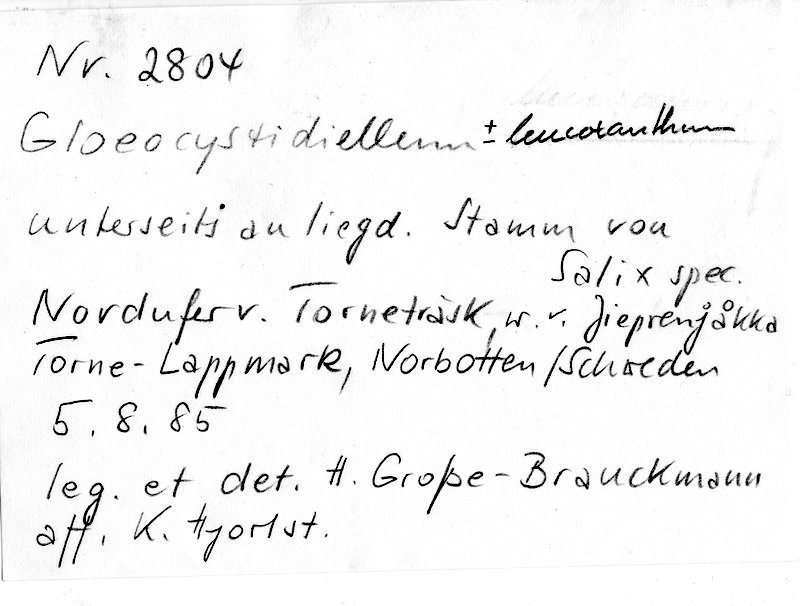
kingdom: Fungi
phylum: Basidiomycota
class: Agaricomycetes
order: Russulales
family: Stereaceae
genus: Megalocystidium
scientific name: Megalocystidium leucoxanthum
